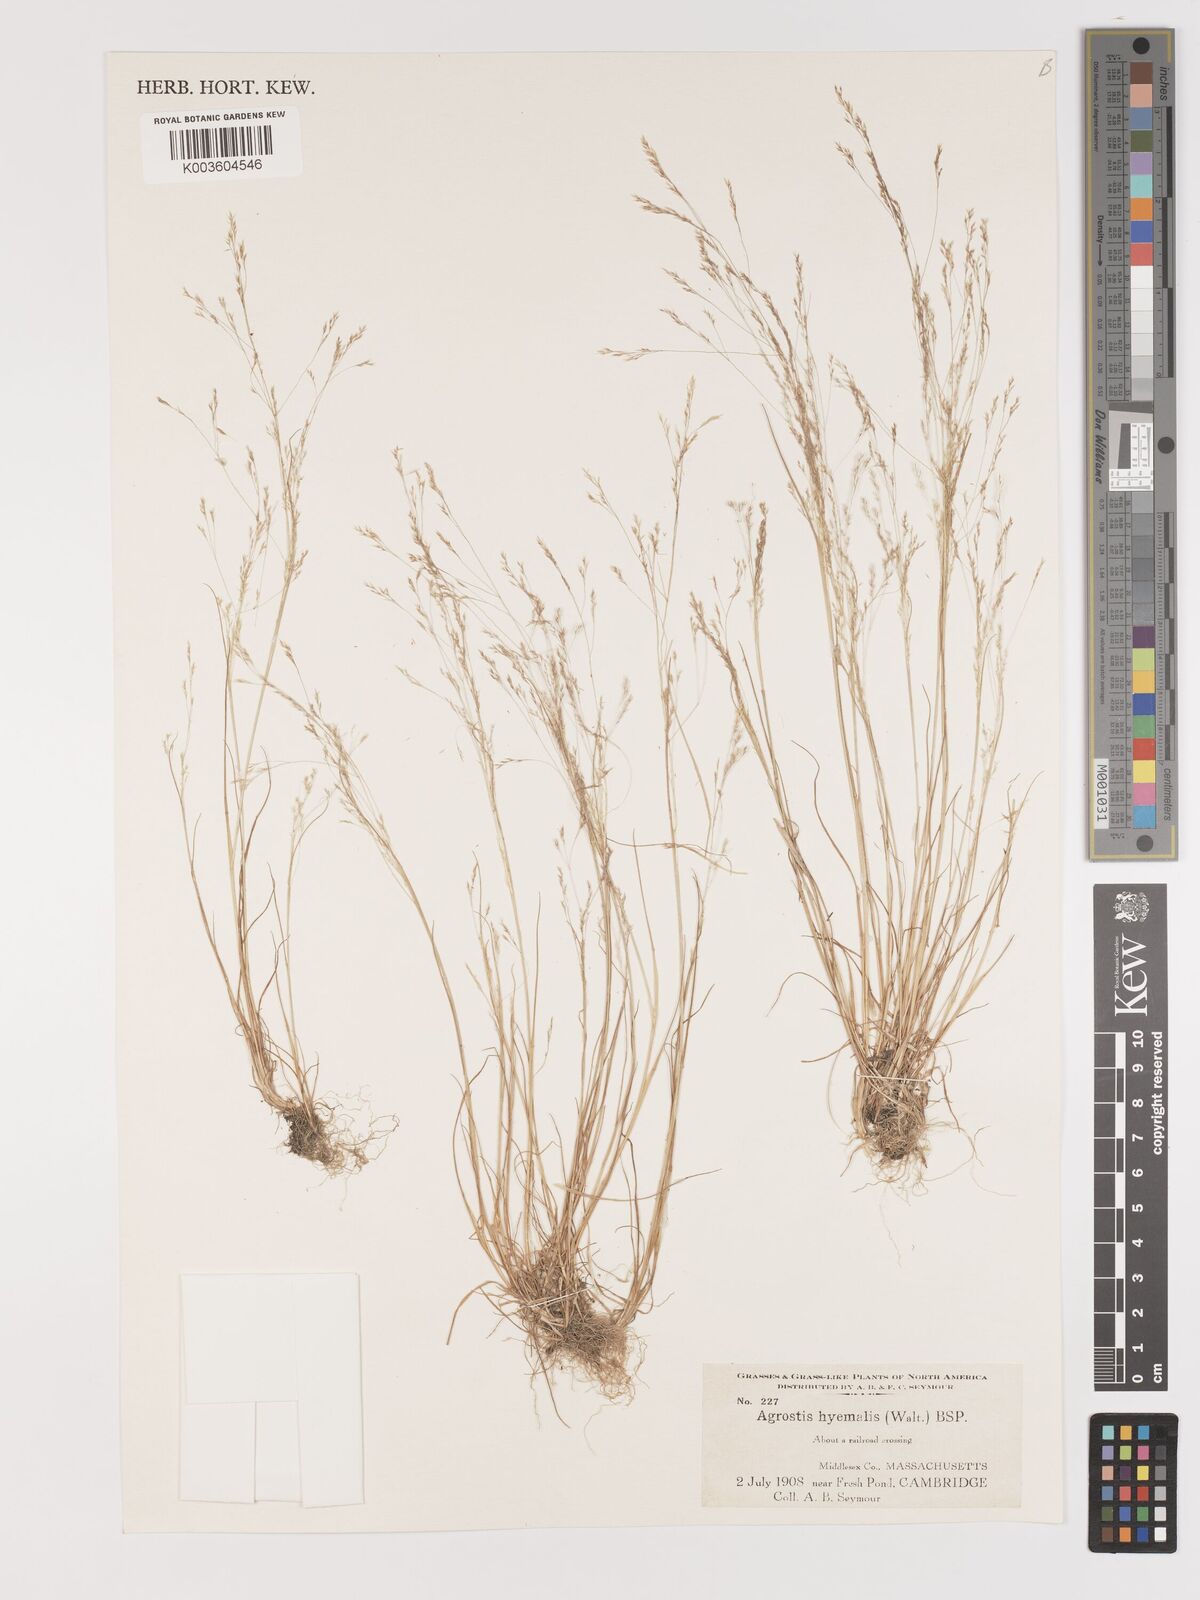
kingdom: Plantae
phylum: Tracheophyta
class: Liliopsida
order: Poales
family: Poaceae
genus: Agrostis
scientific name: Agrostis hyemalis
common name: Small bent
